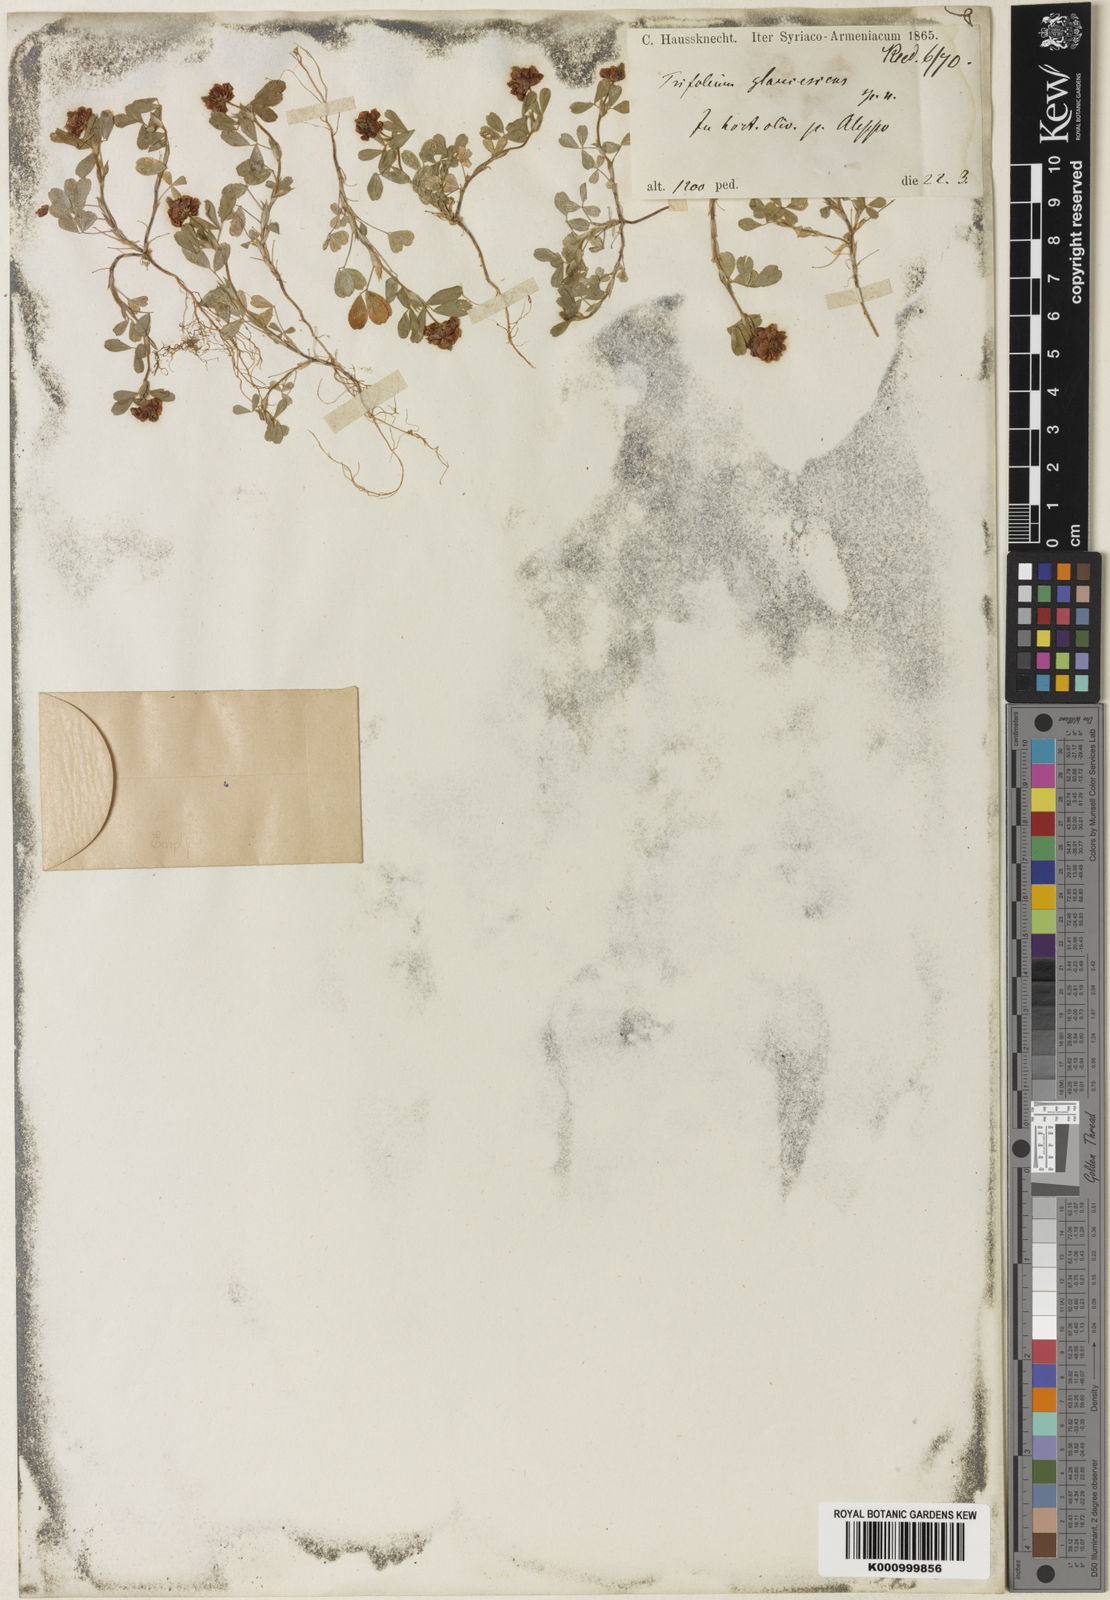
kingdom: Plantae
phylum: Tracheophyta
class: Magnoliopsida
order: Fabales
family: Fabaceae
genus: Trifolium
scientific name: Trifolium campestre
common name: Field clover
